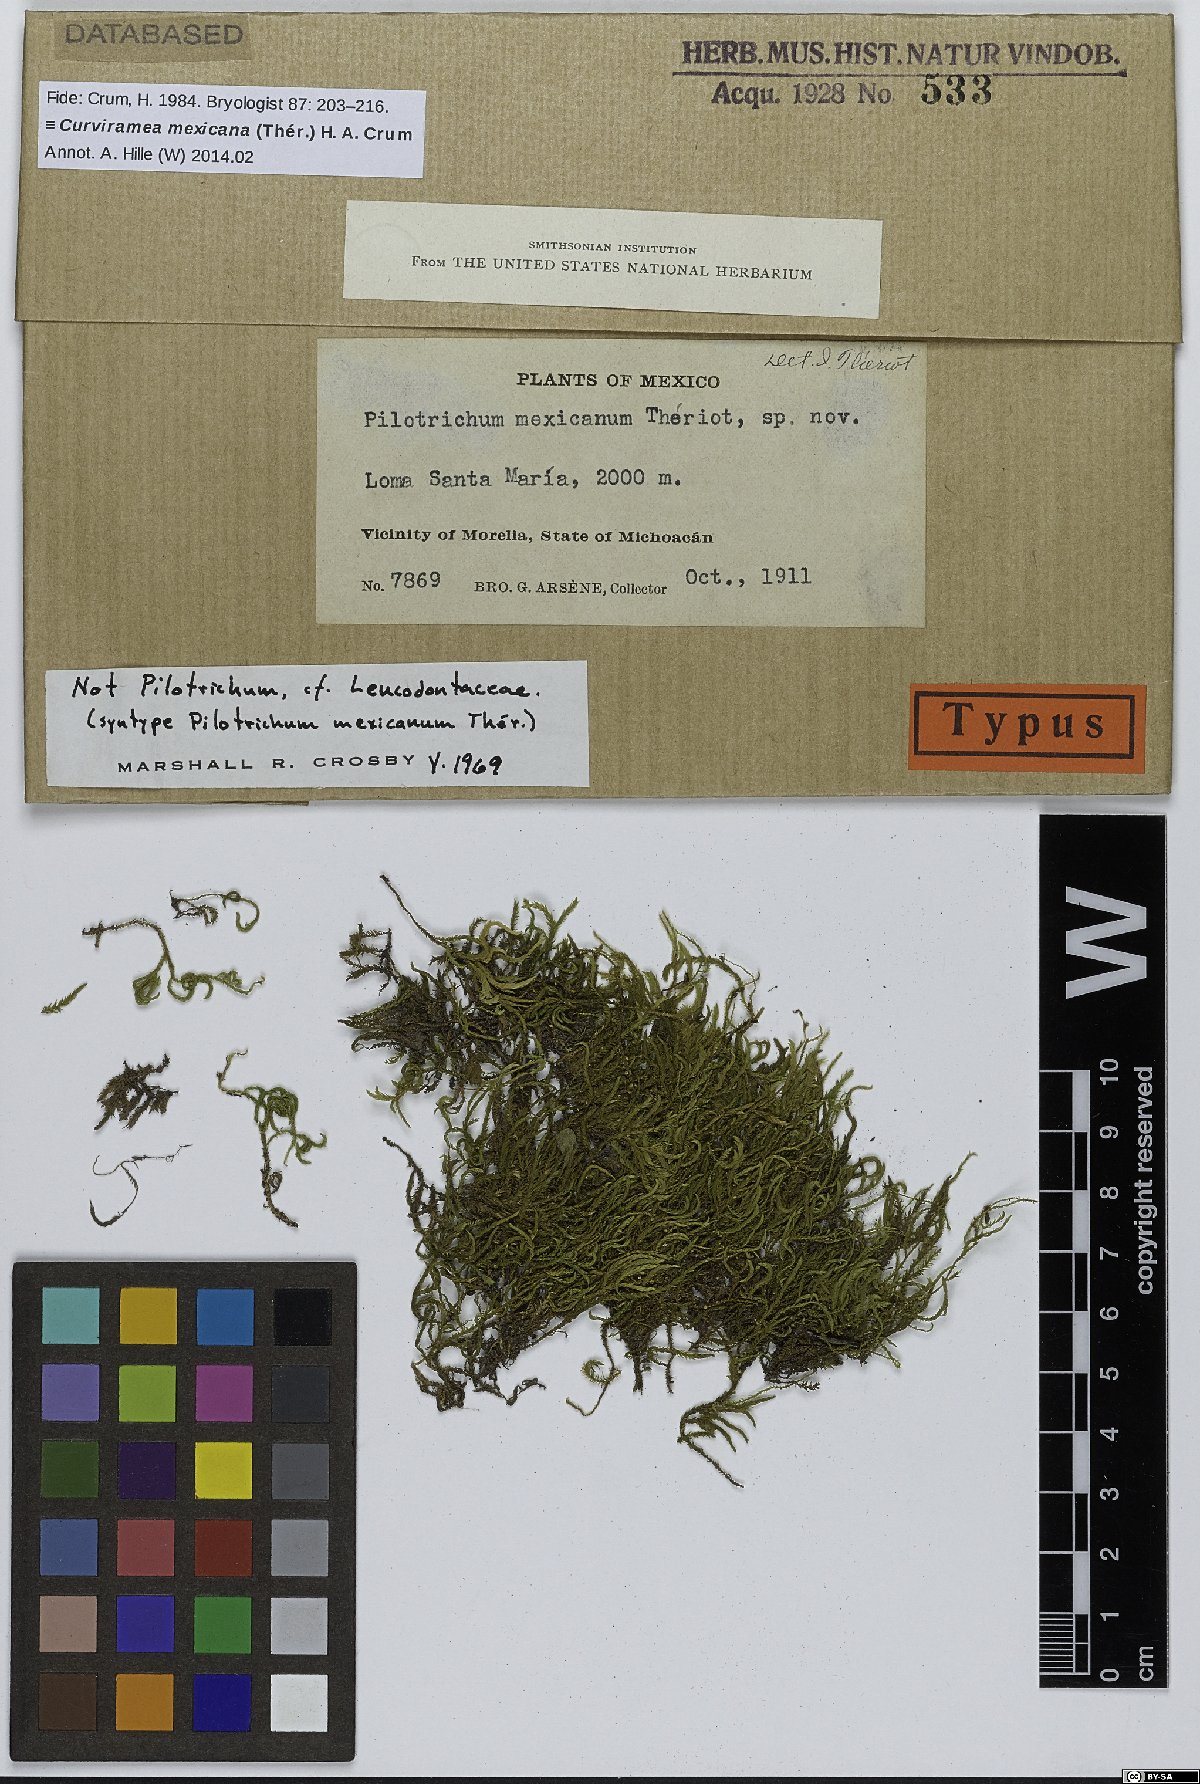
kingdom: Plantae
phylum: Bryophyta
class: Bryopsida
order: Hypnales
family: Anomodontaceae
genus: Curviramea
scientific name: Curviramea mexicana
